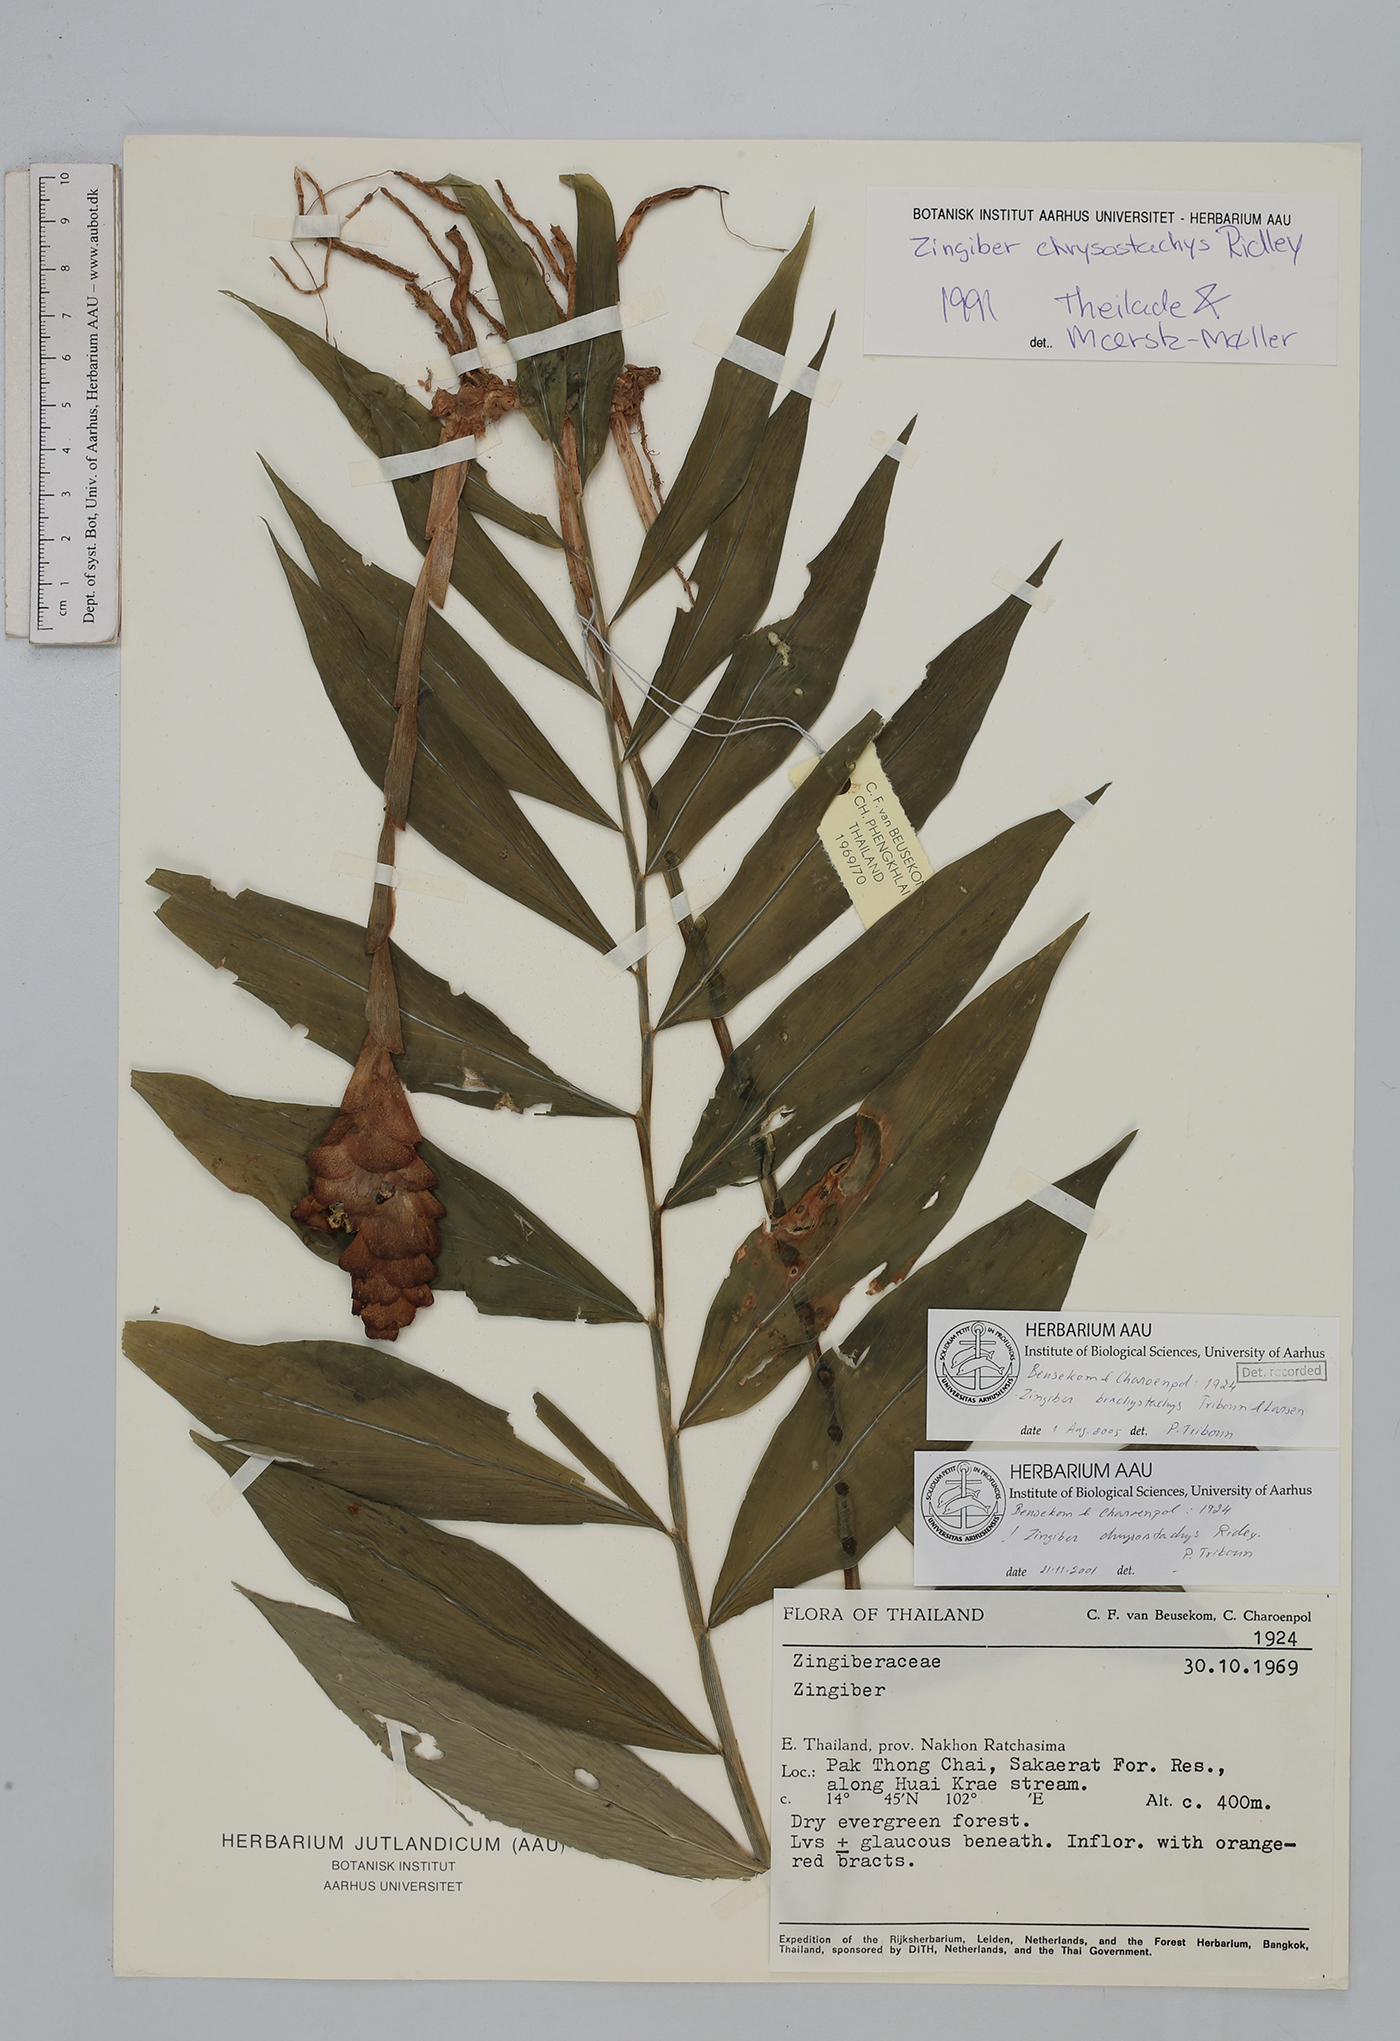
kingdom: Plantae
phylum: Tracheophyta
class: Liliopsida
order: Zingiberales
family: Zingiberaceae
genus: Zingiber
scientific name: Zingiber brachystachys
